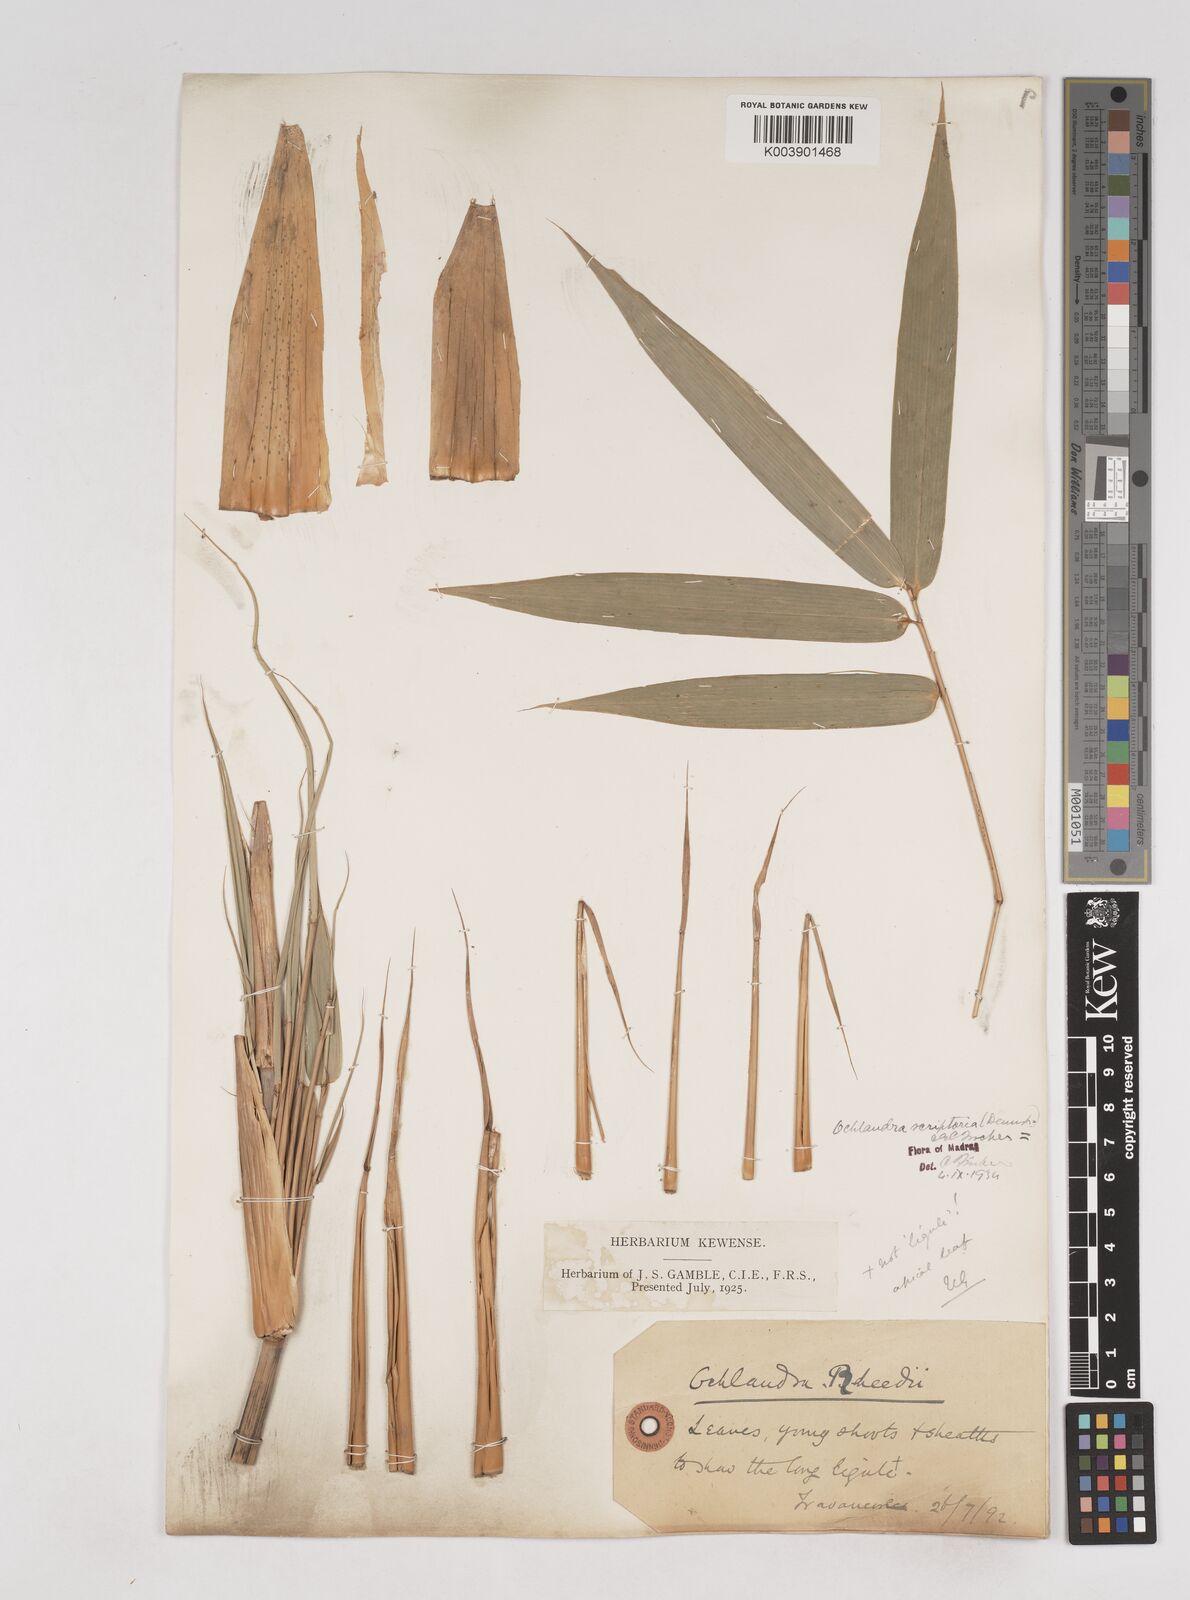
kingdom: Plantae
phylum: Tracheophyta
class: Liliopsida
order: Poales
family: Poaceae
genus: Ochlandra
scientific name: Ochlandra scriptoria
